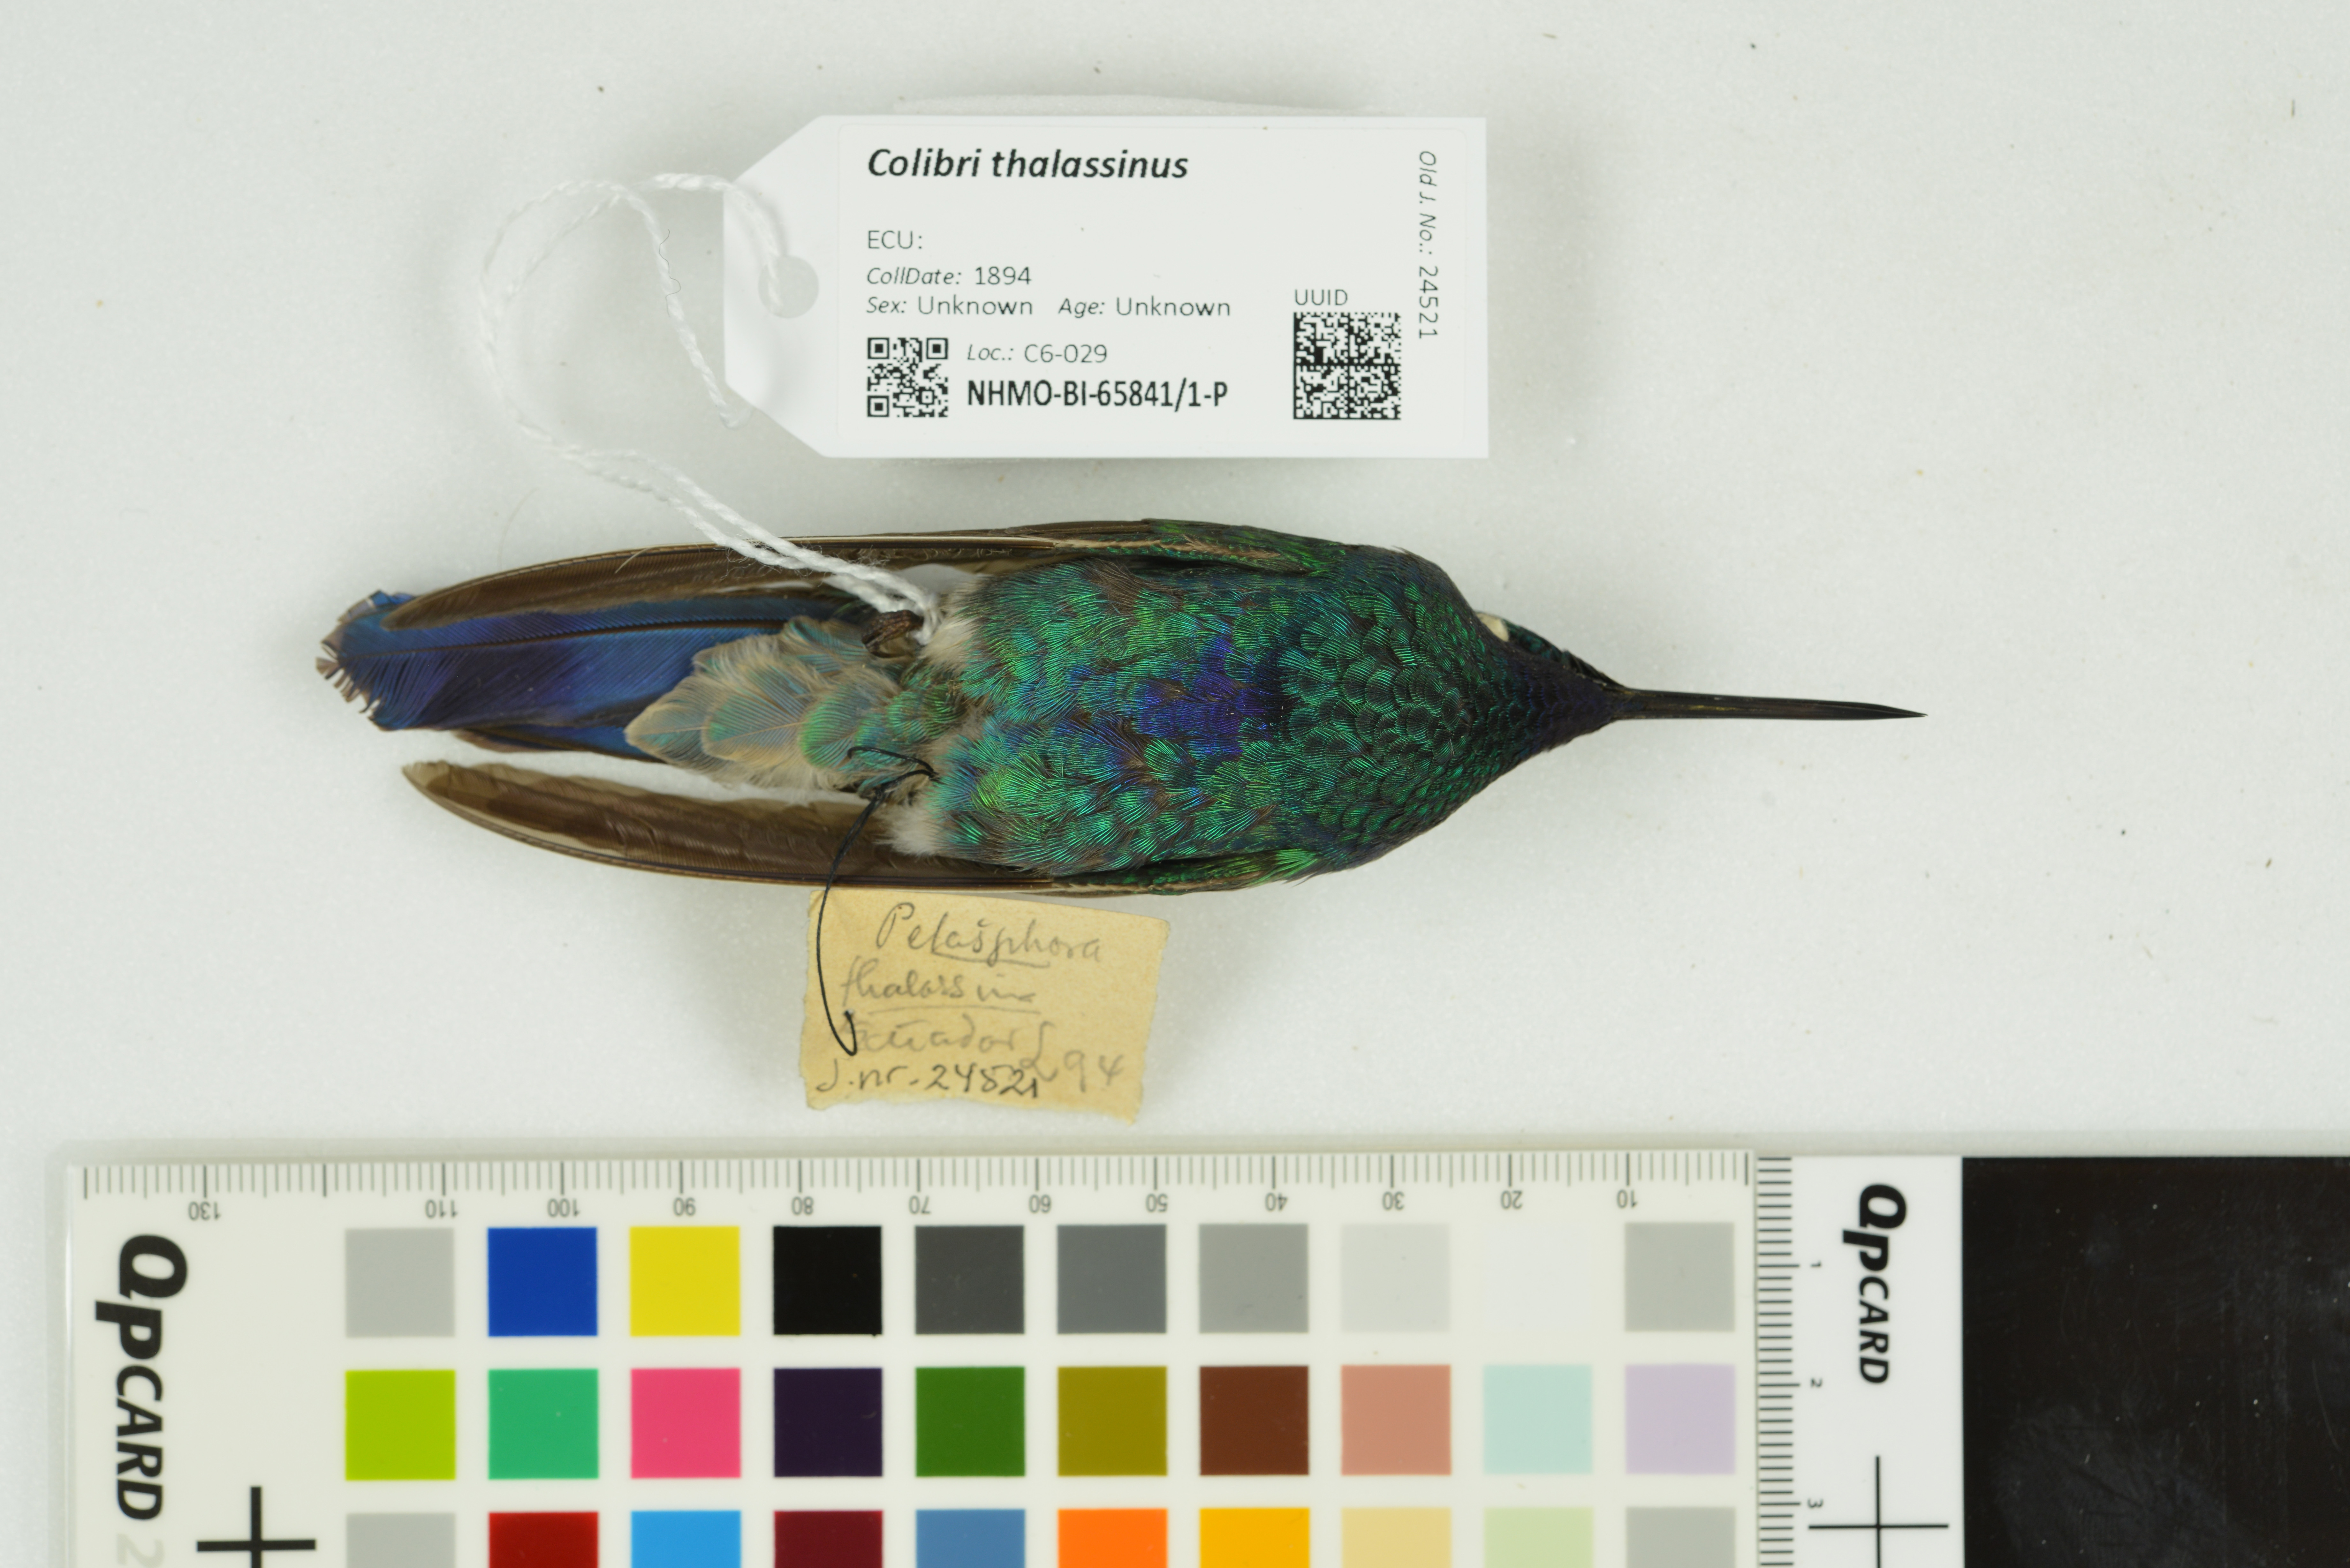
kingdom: Animalia
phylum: Chordata
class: Aves
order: Apodiformes
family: Trochilidae
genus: Colibri
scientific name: Colibri thalassinus
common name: Green violetear
